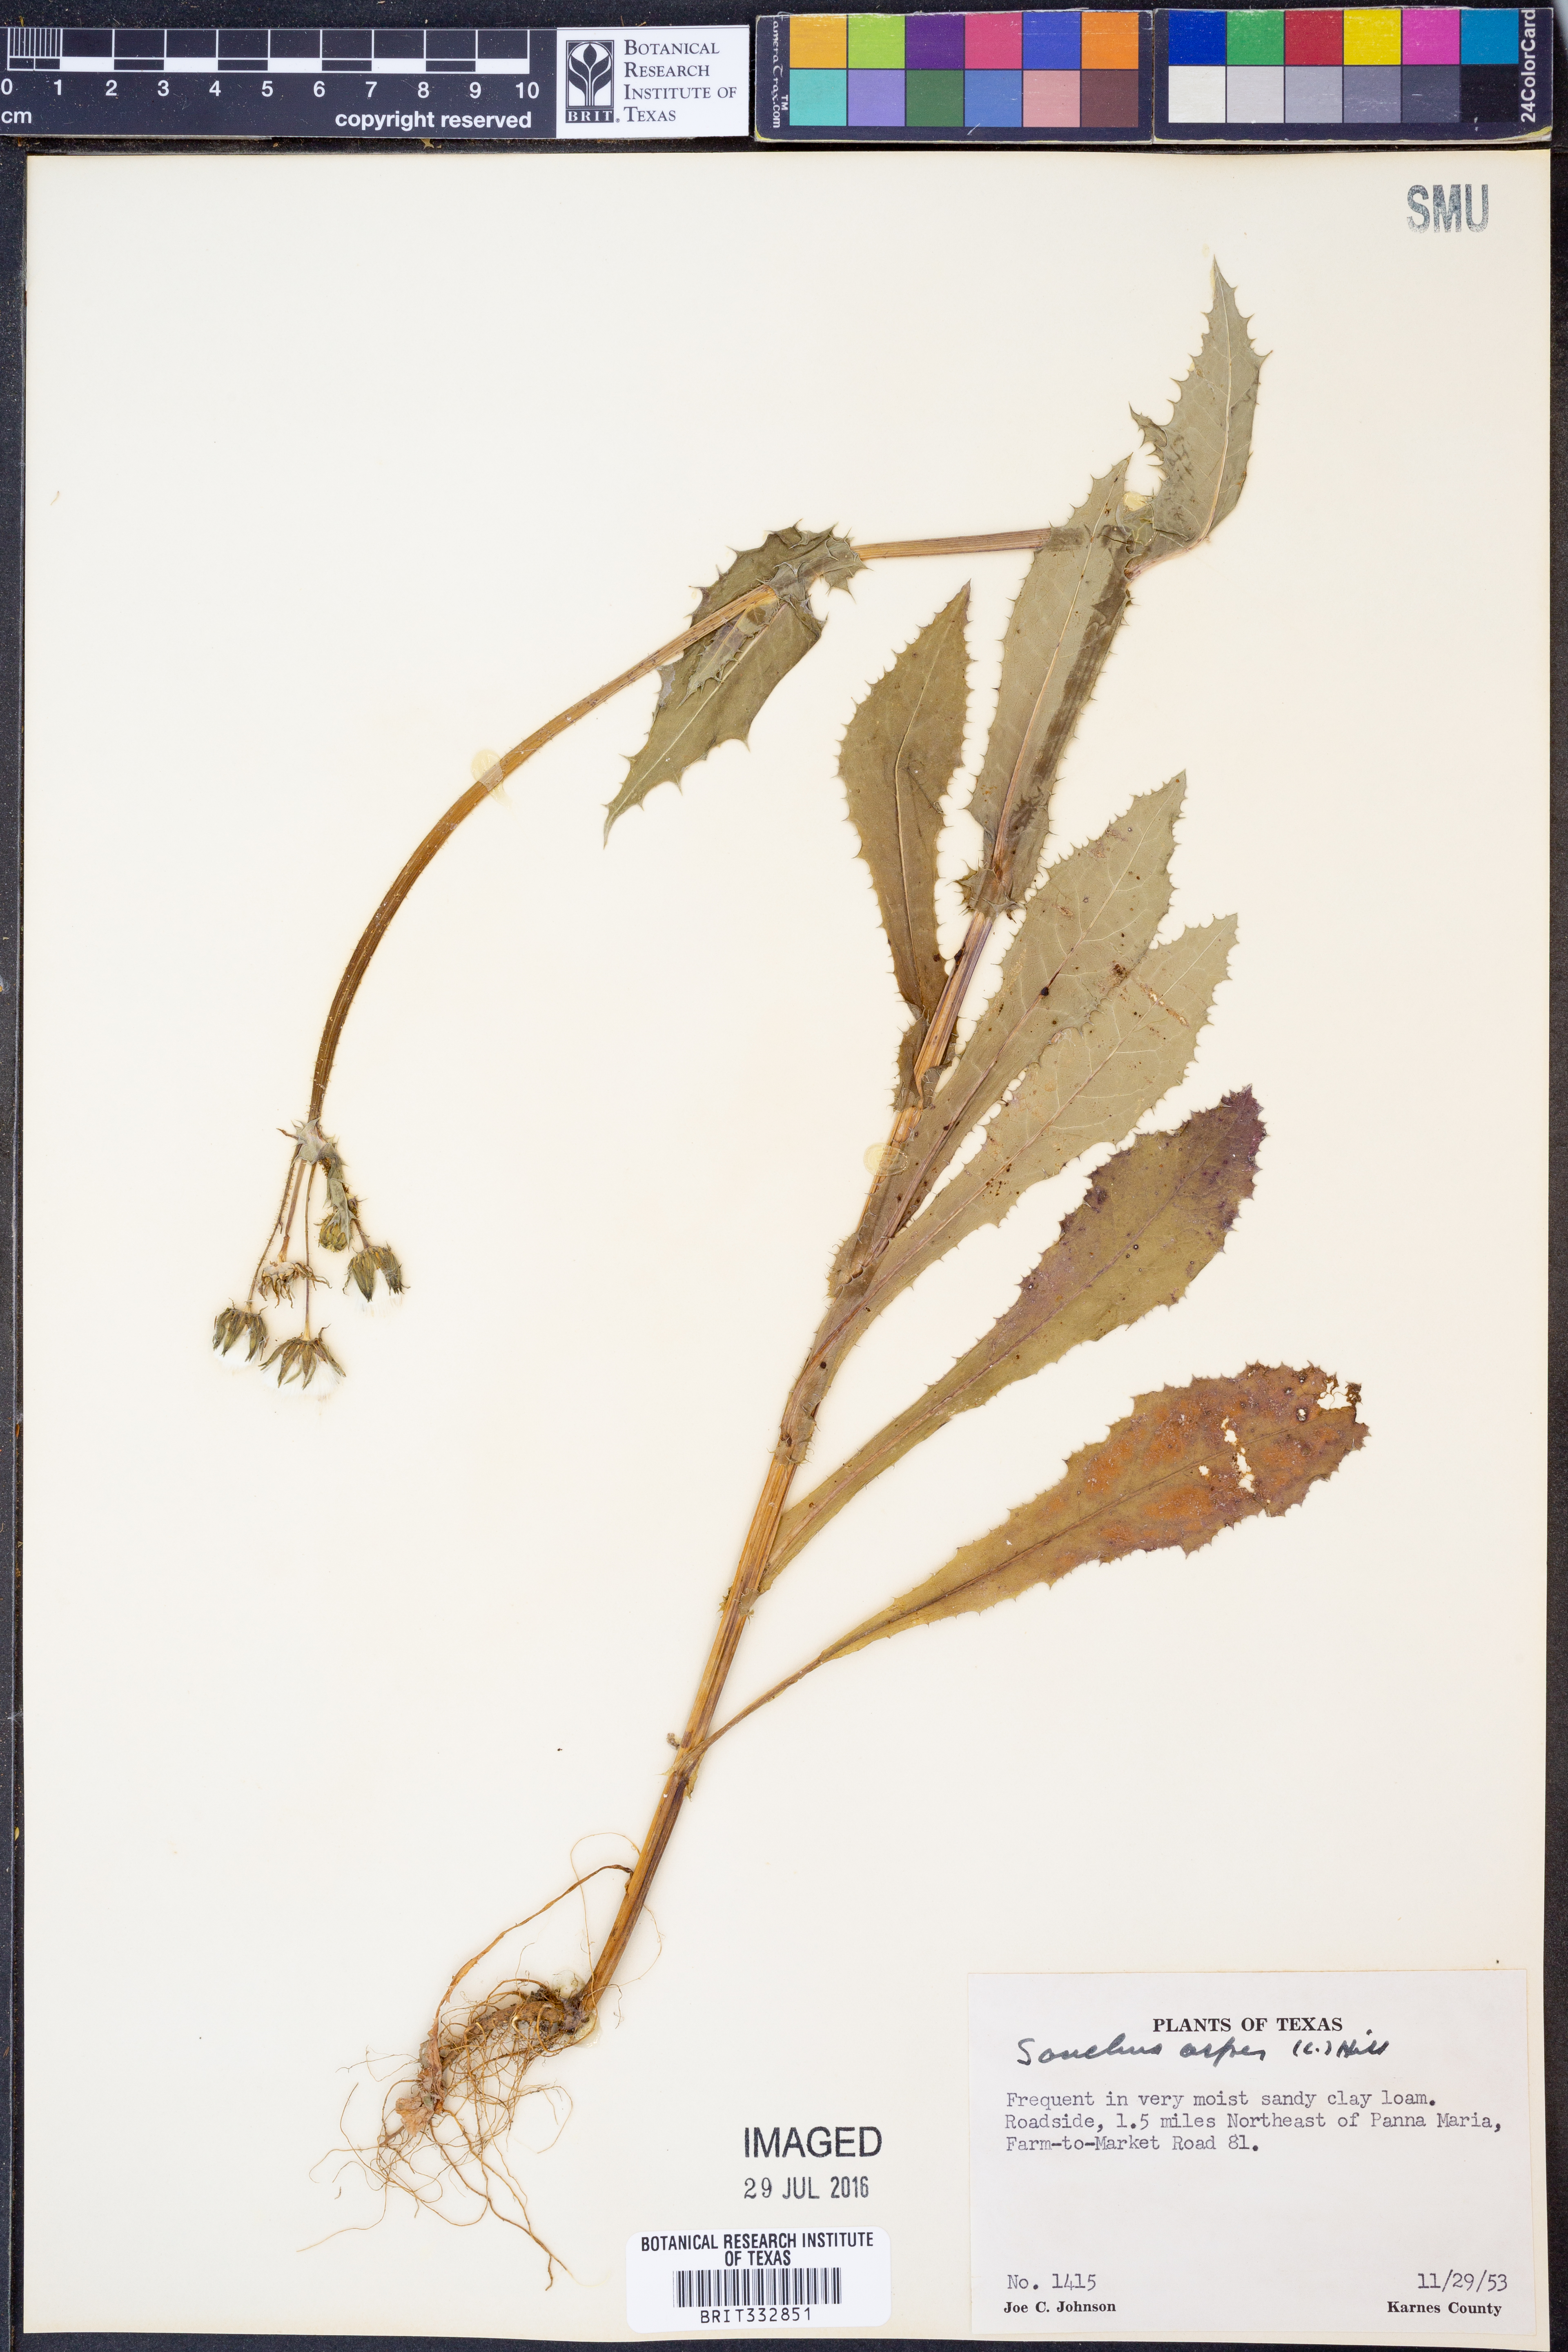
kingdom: Plantae
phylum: Tracheophyta
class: Magnoliopsida
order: Asterales
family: Asteraceae
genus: Sonchus
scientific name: Sonchus asper
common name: Prickly sow-thistle
